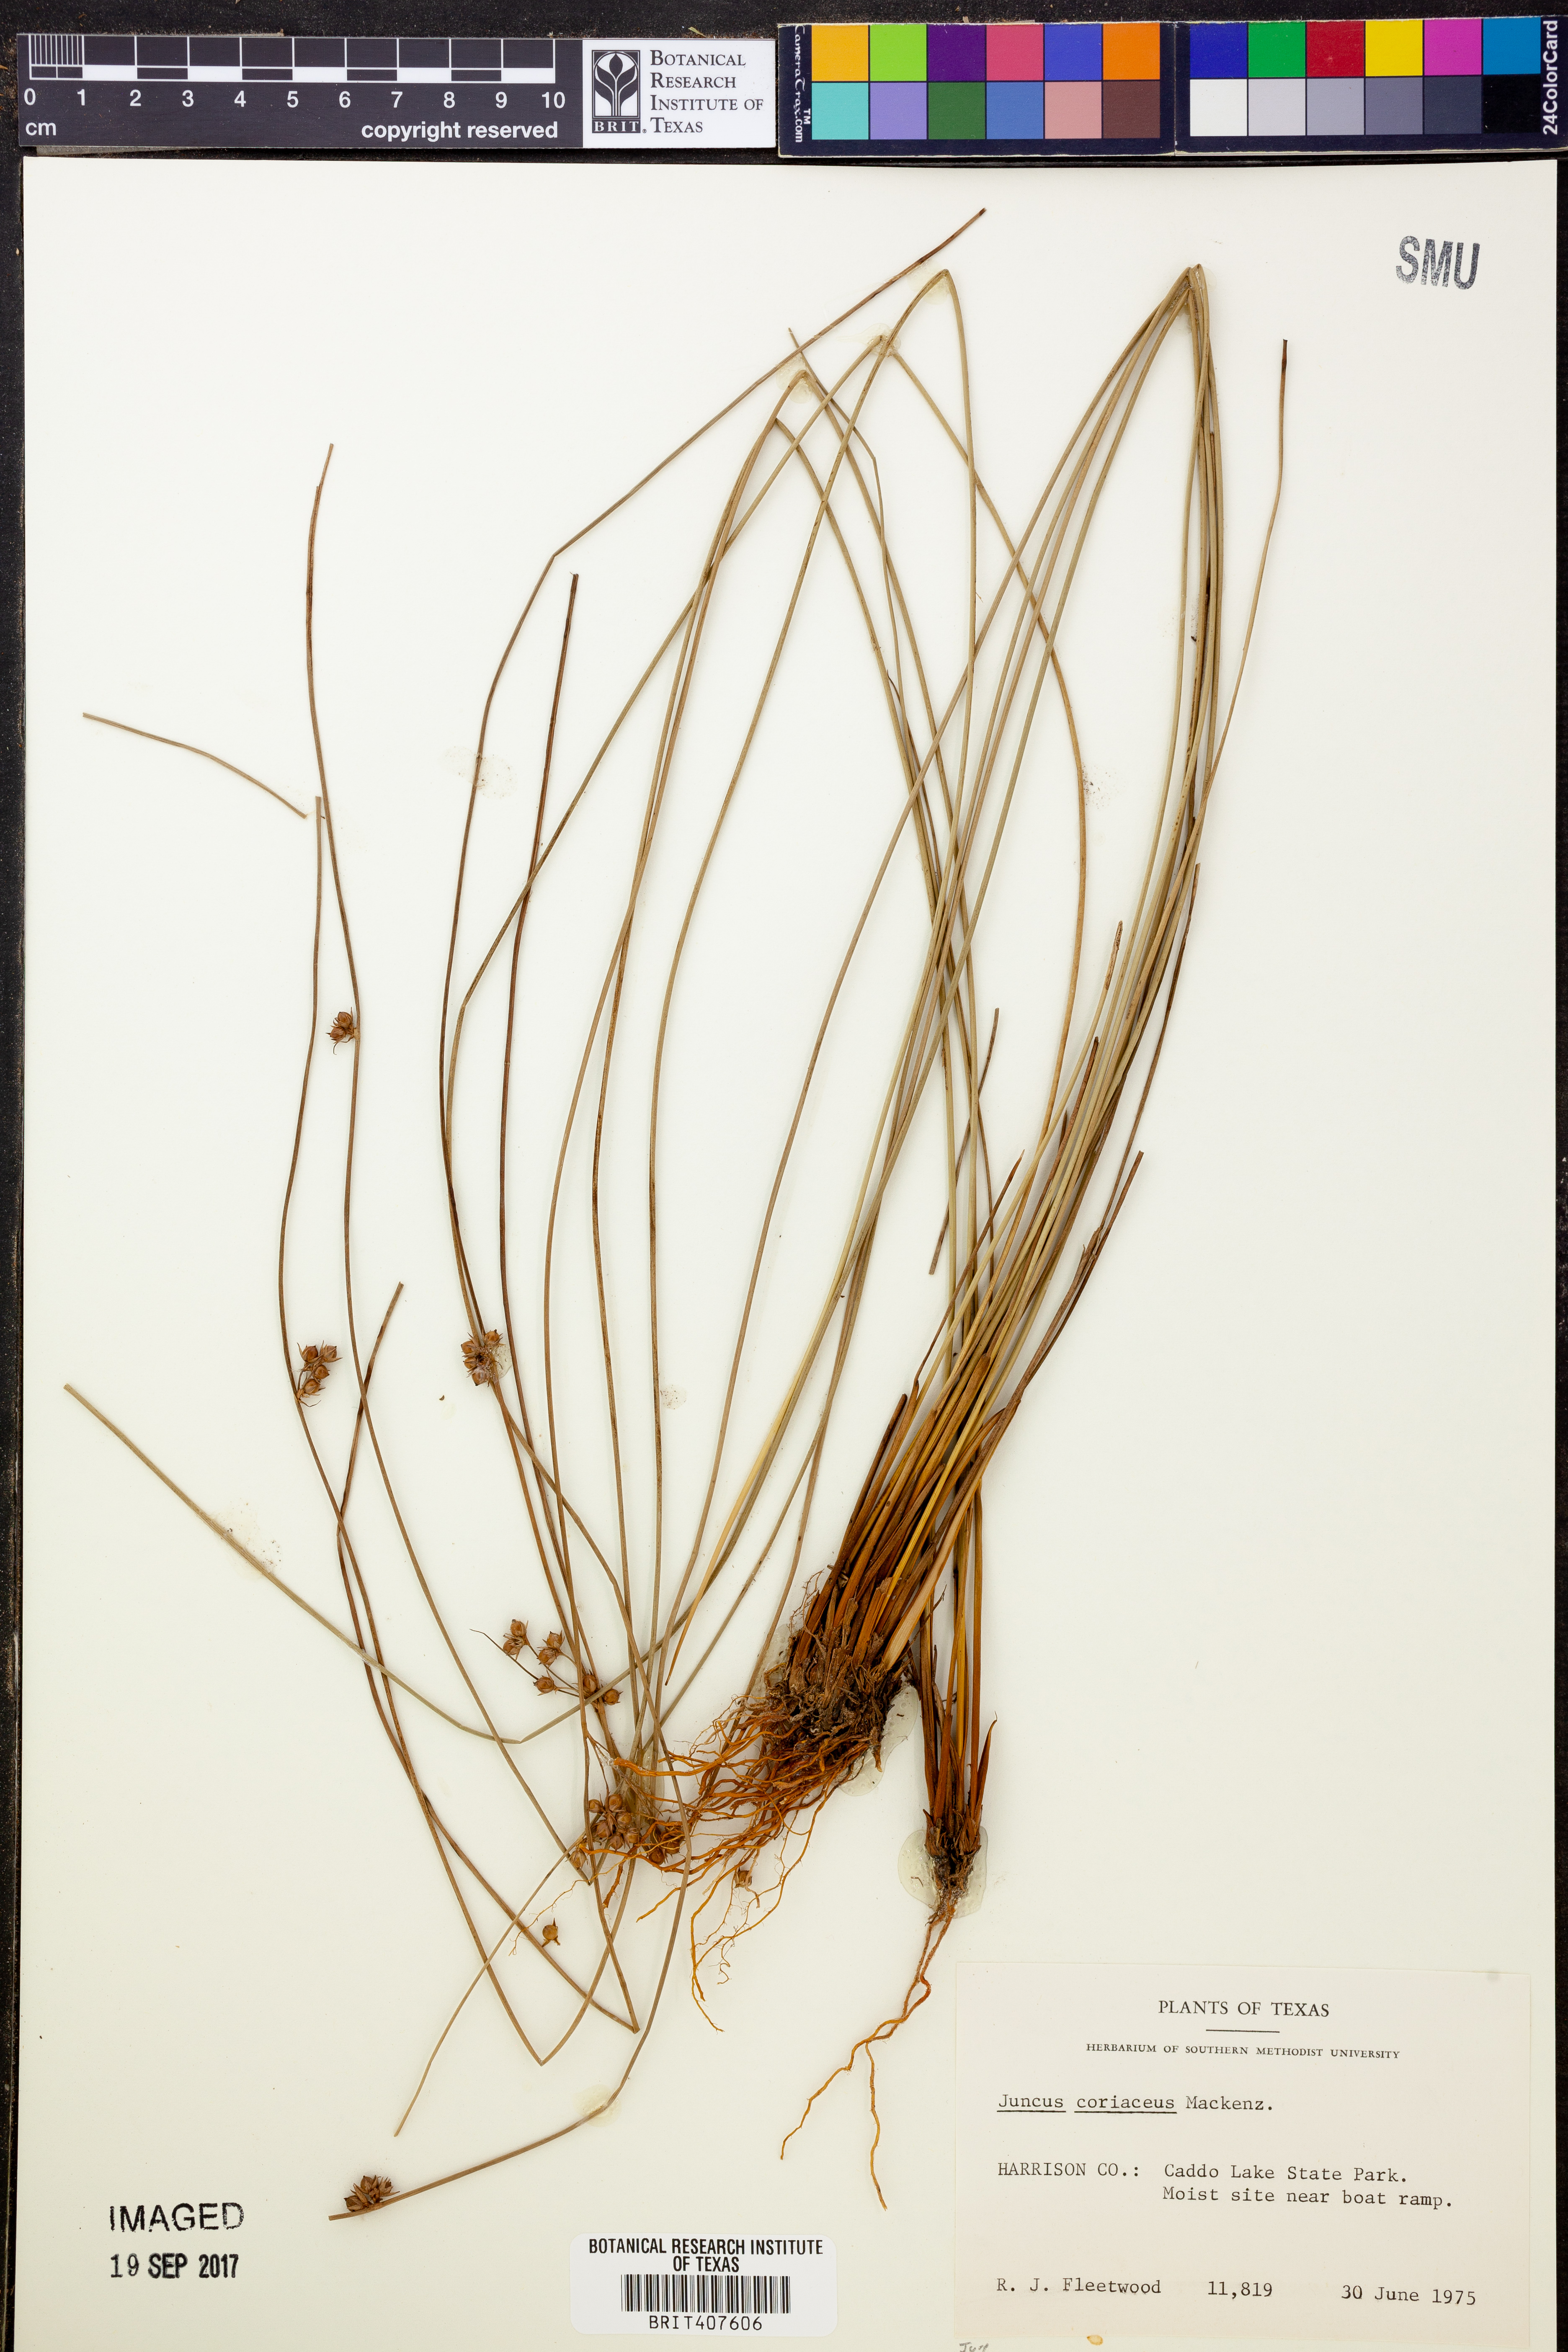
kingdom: Plantae
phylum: Tracheophyta
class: Liliopsida
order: Poales
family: Juncaceae
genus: Juncus
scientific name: Juncus coriaceus
